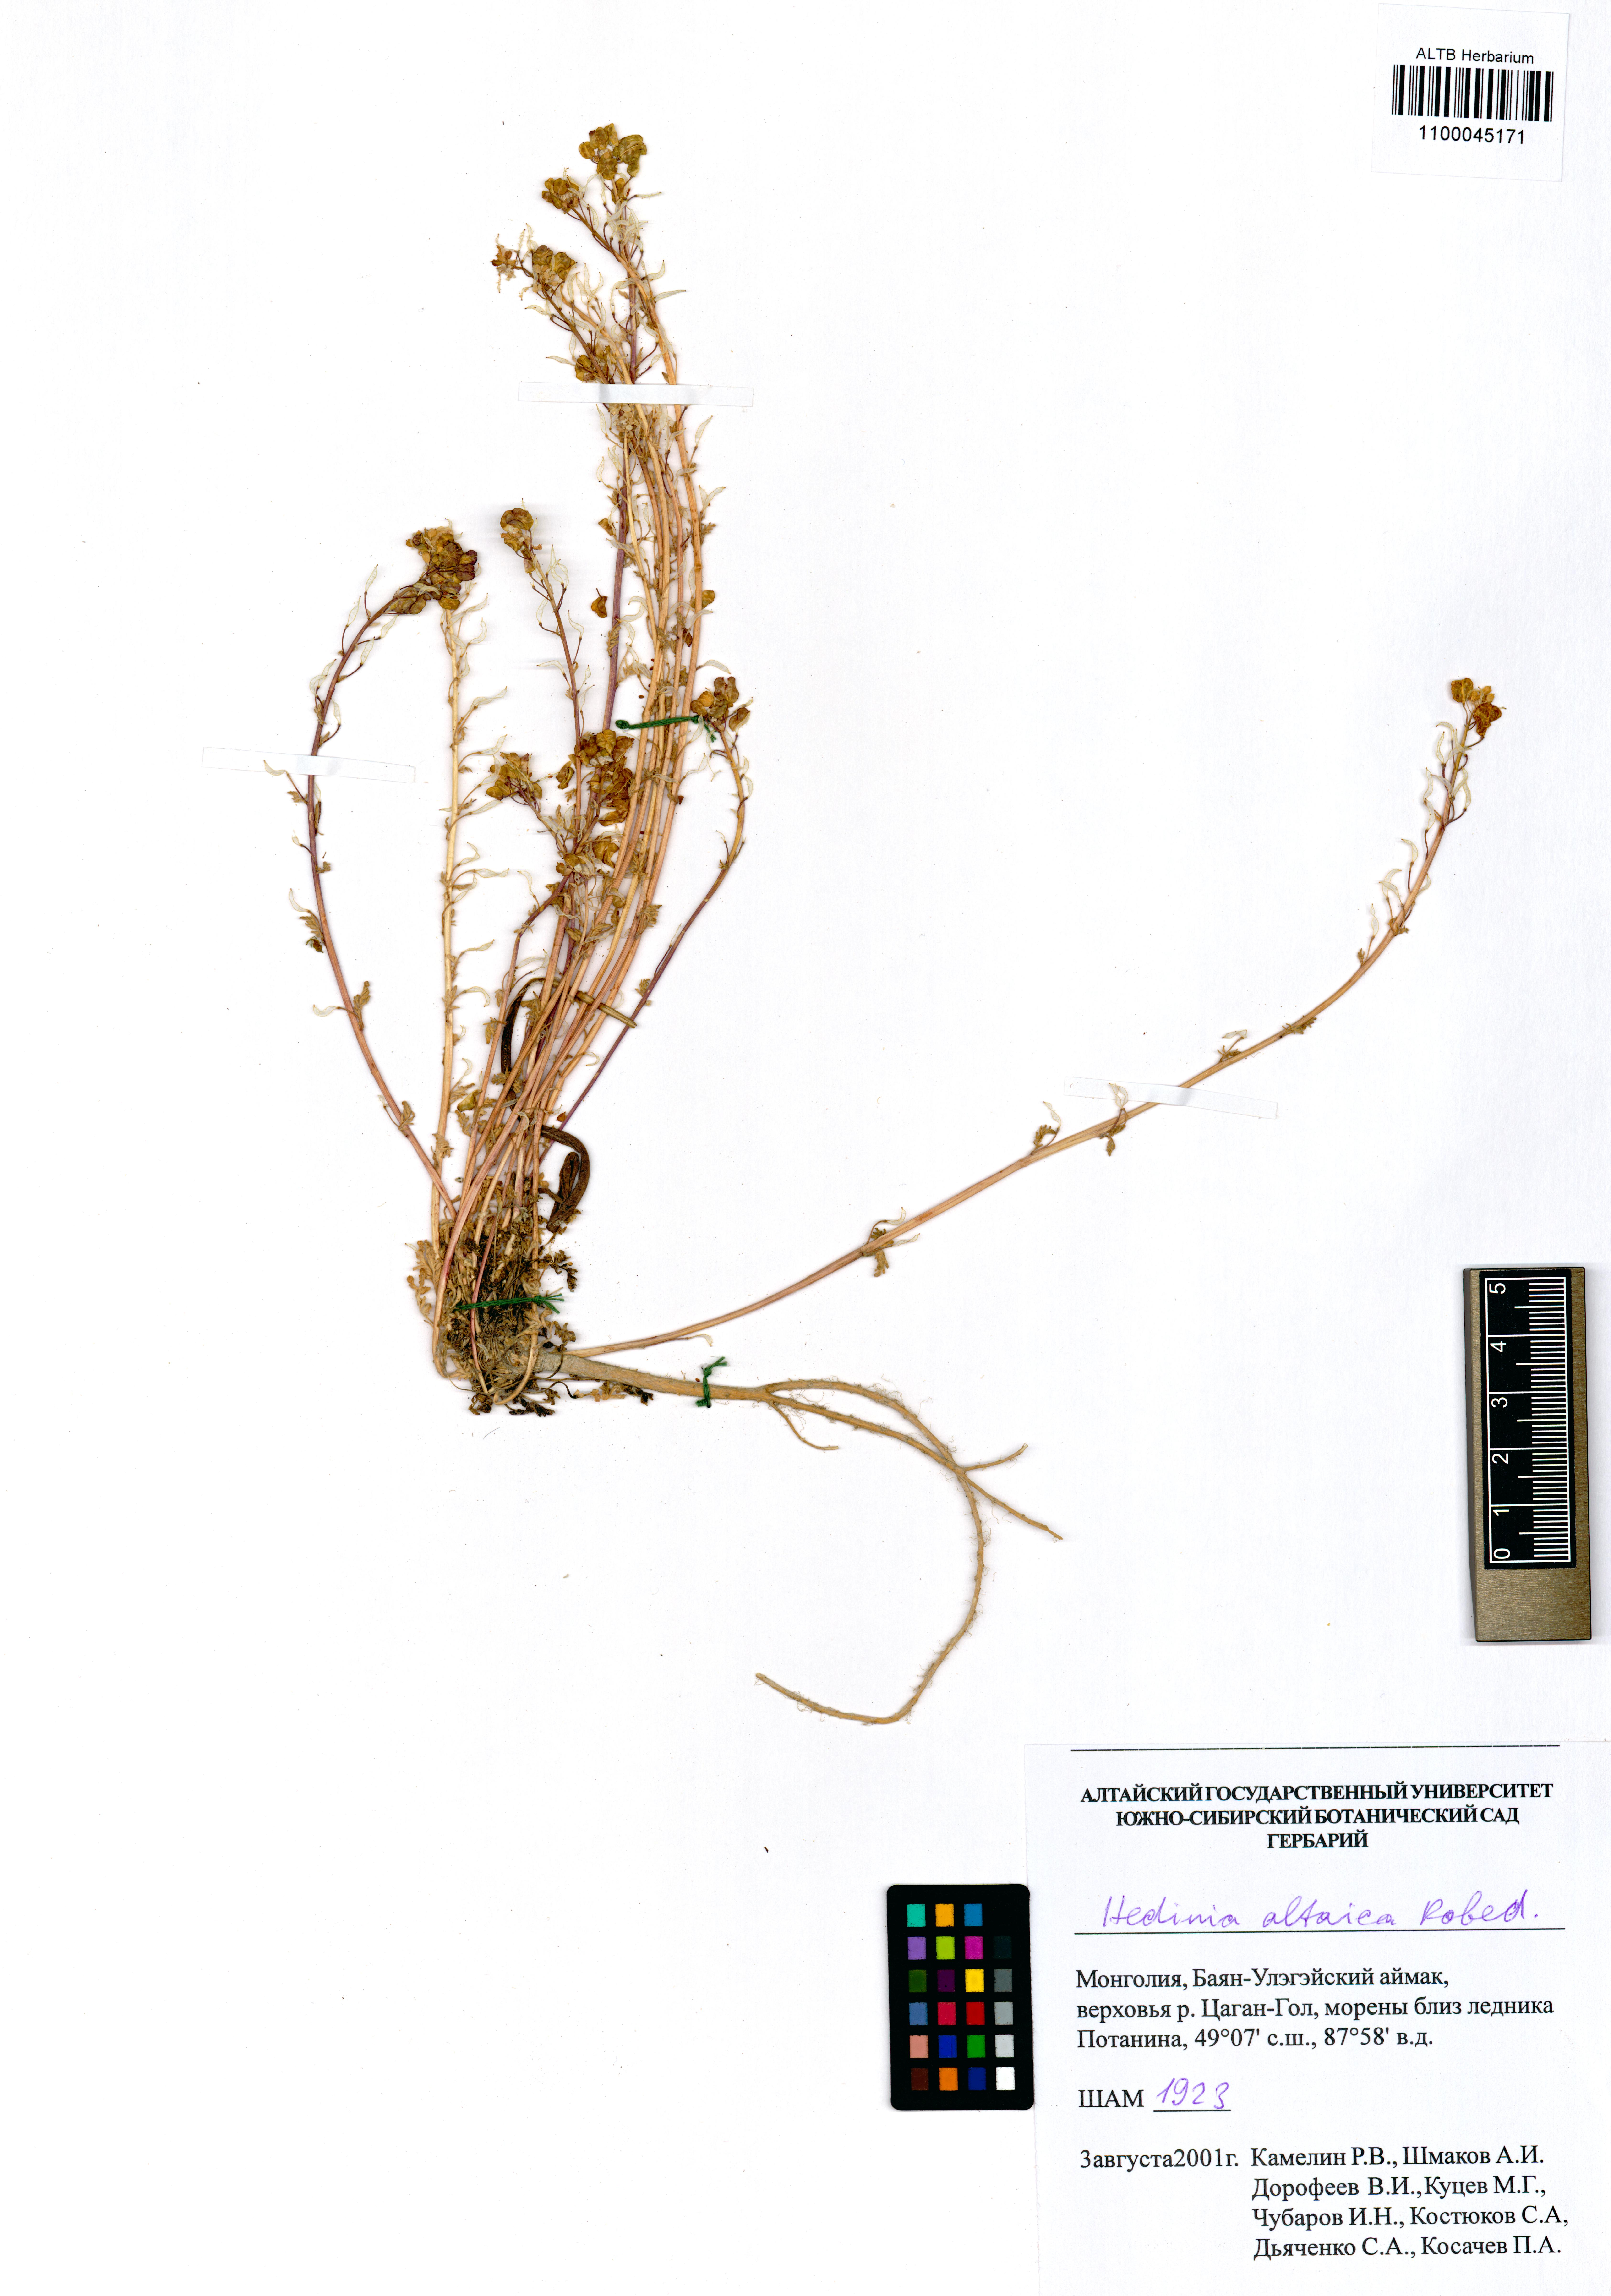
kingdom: Plantae
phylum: Tracheophyta
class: Magnoliopsida
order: Brassicales
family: Brassicaceae
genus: Smelowskia
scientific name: Smelowskia altaica
